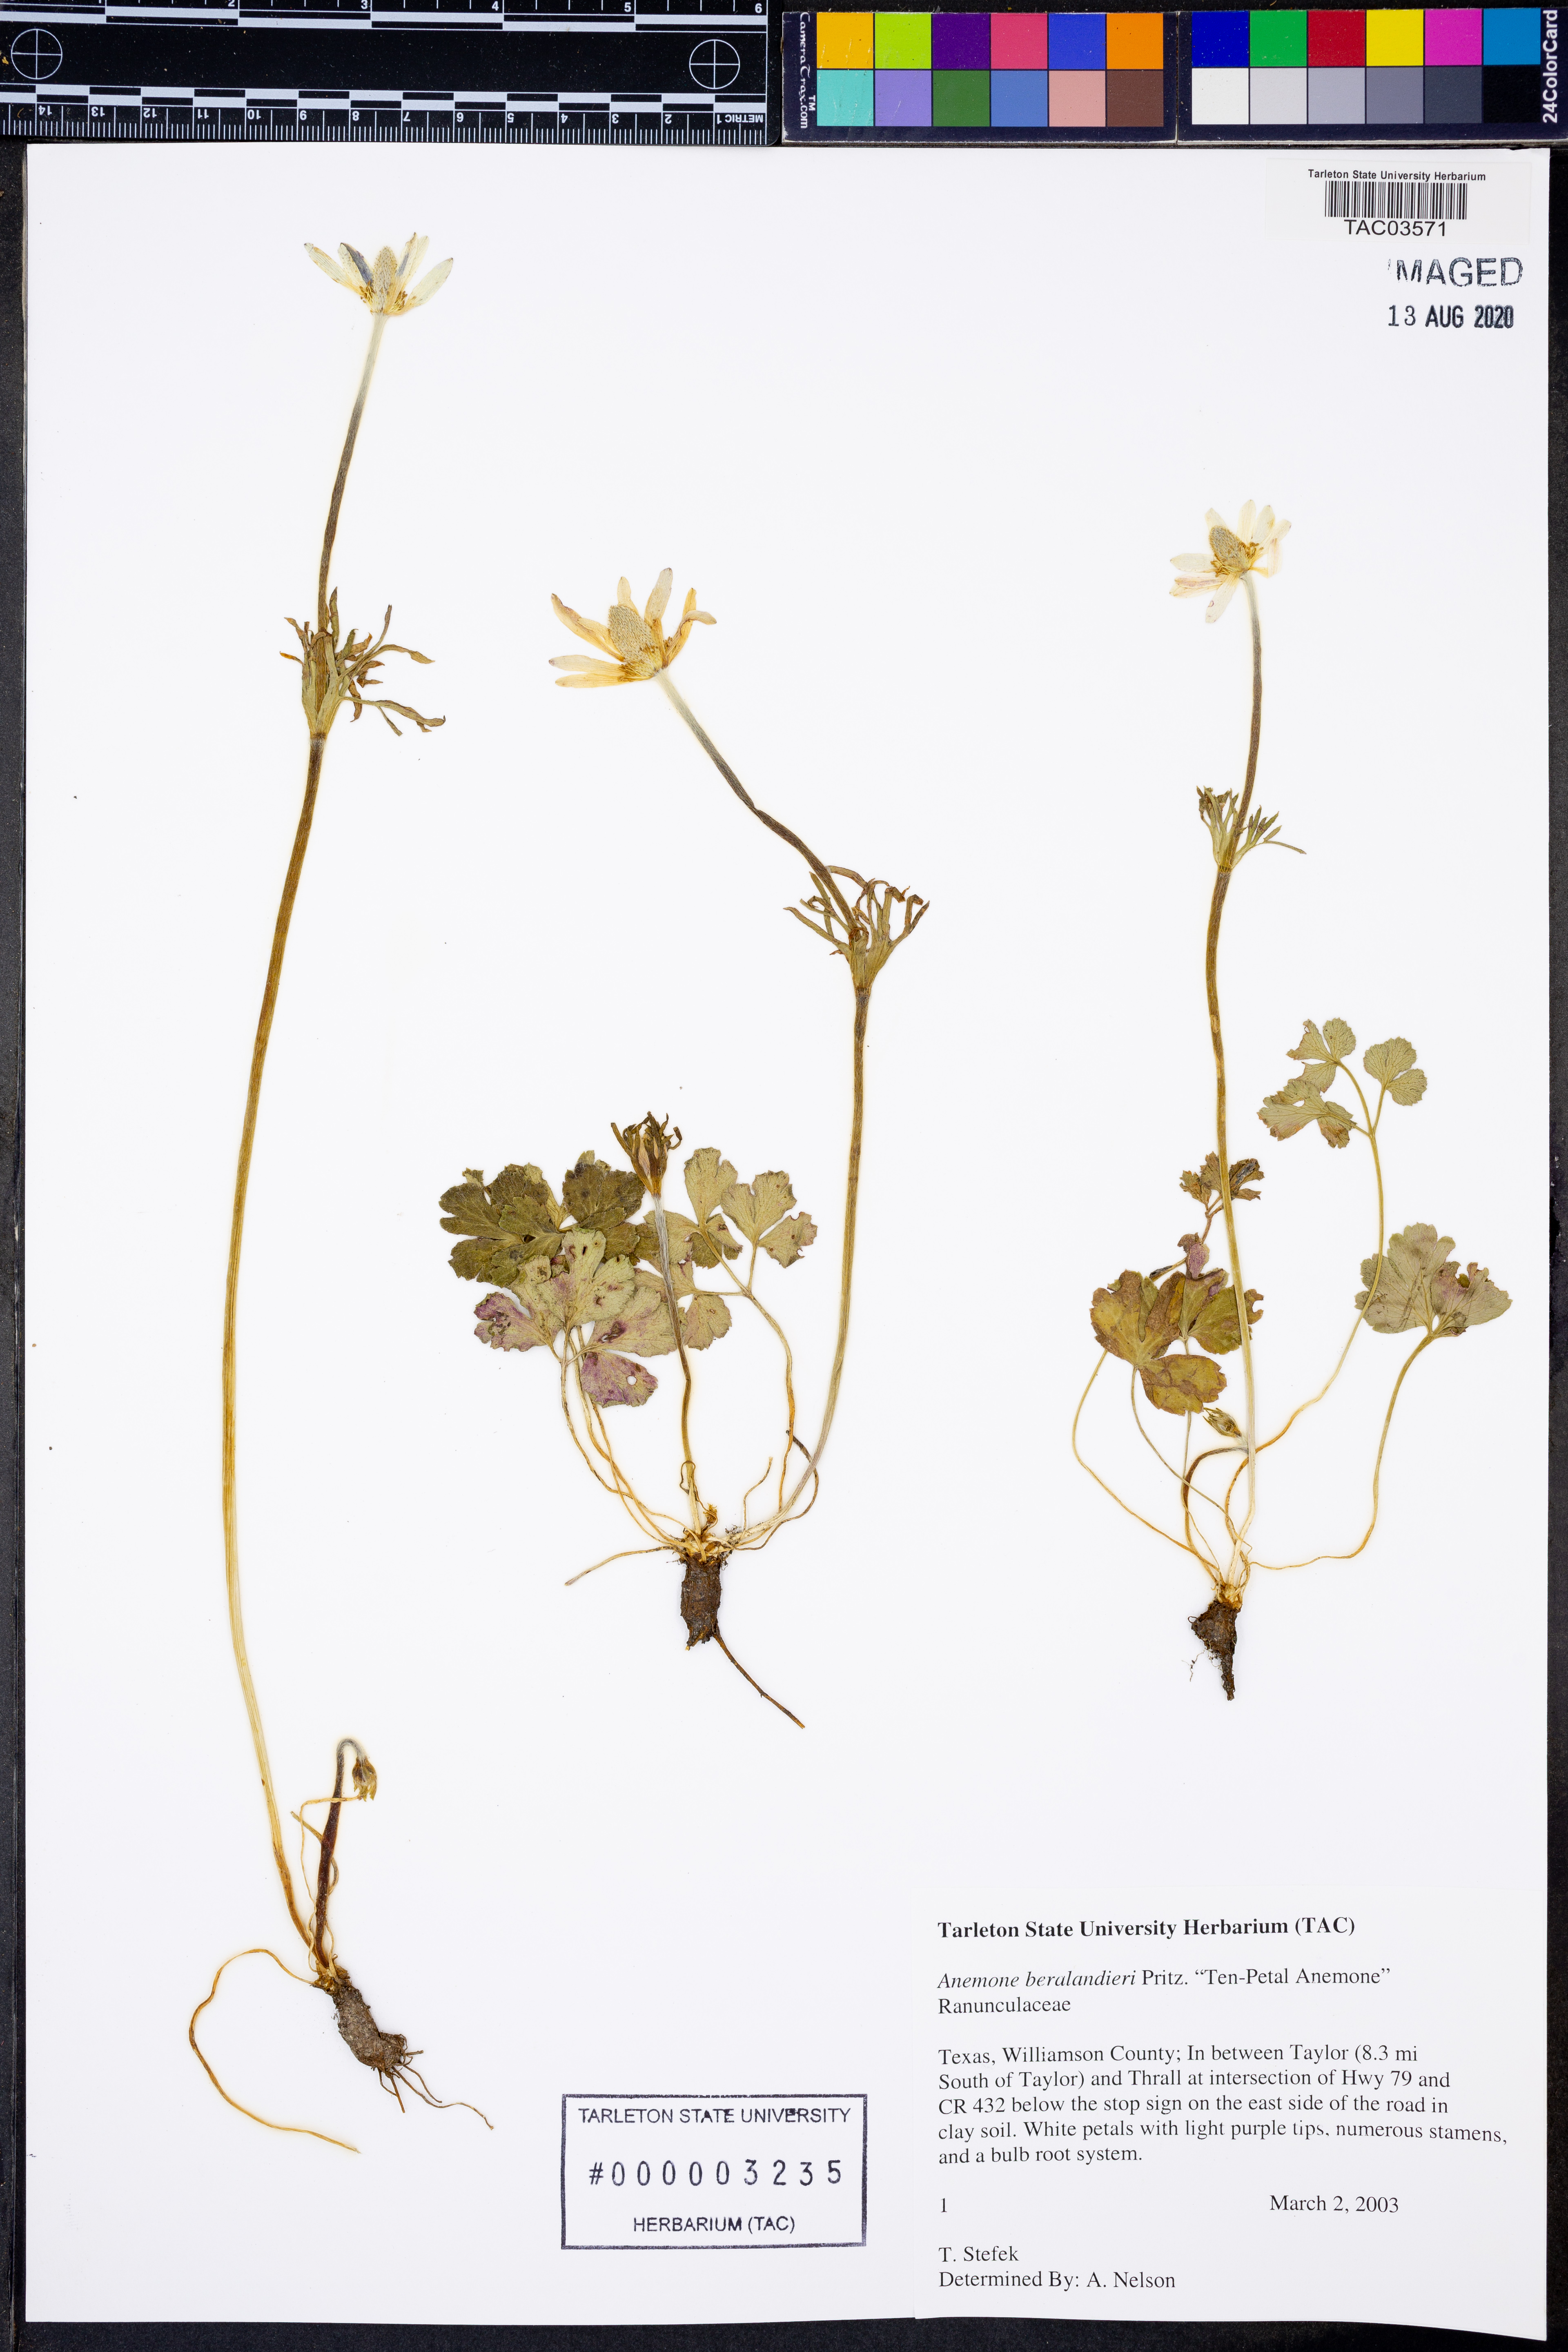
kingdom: Plantae
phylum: Tracheophyta
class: Magnoliopsida
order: Ranunculales
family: Ranunculaceae
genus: Anemone
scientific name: Anemone berlandieri
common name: Ten-petal anemone
